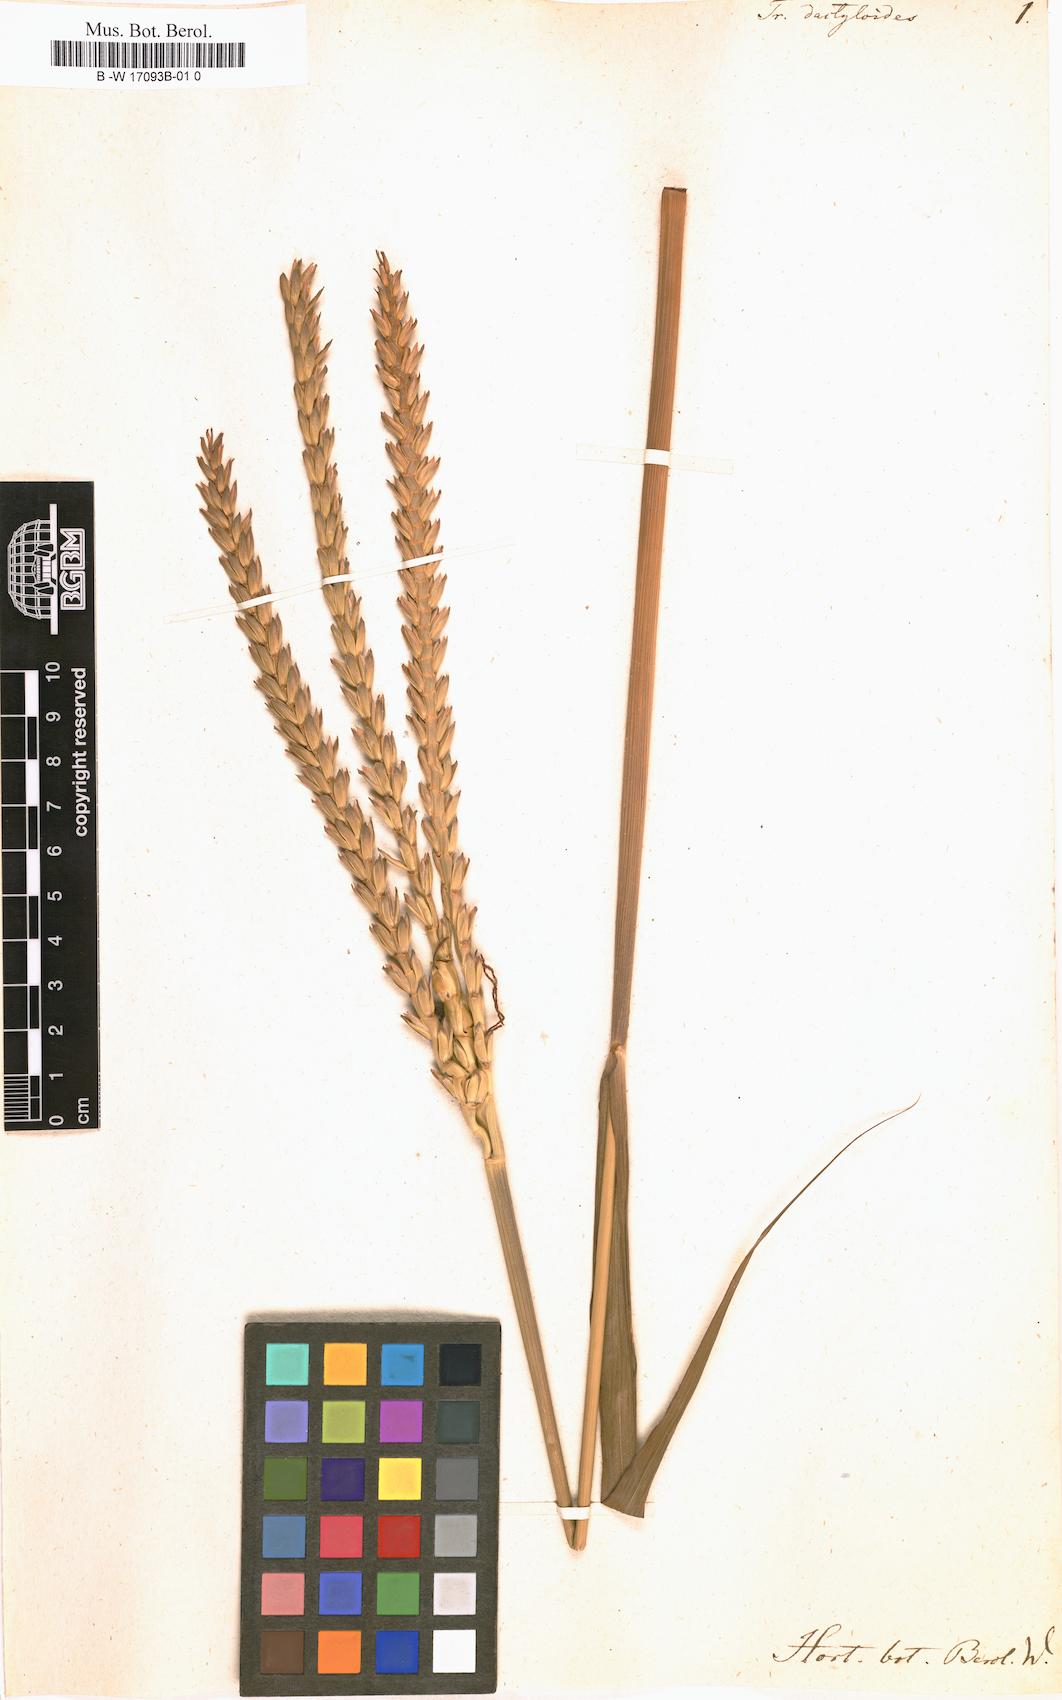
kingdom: Plantae
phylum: Tracheophyta
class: Liliopsida
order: Poales
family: Poaceae
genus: Tripsacum
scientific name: Tripsacum dactyloides
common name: Buffalo-grass
